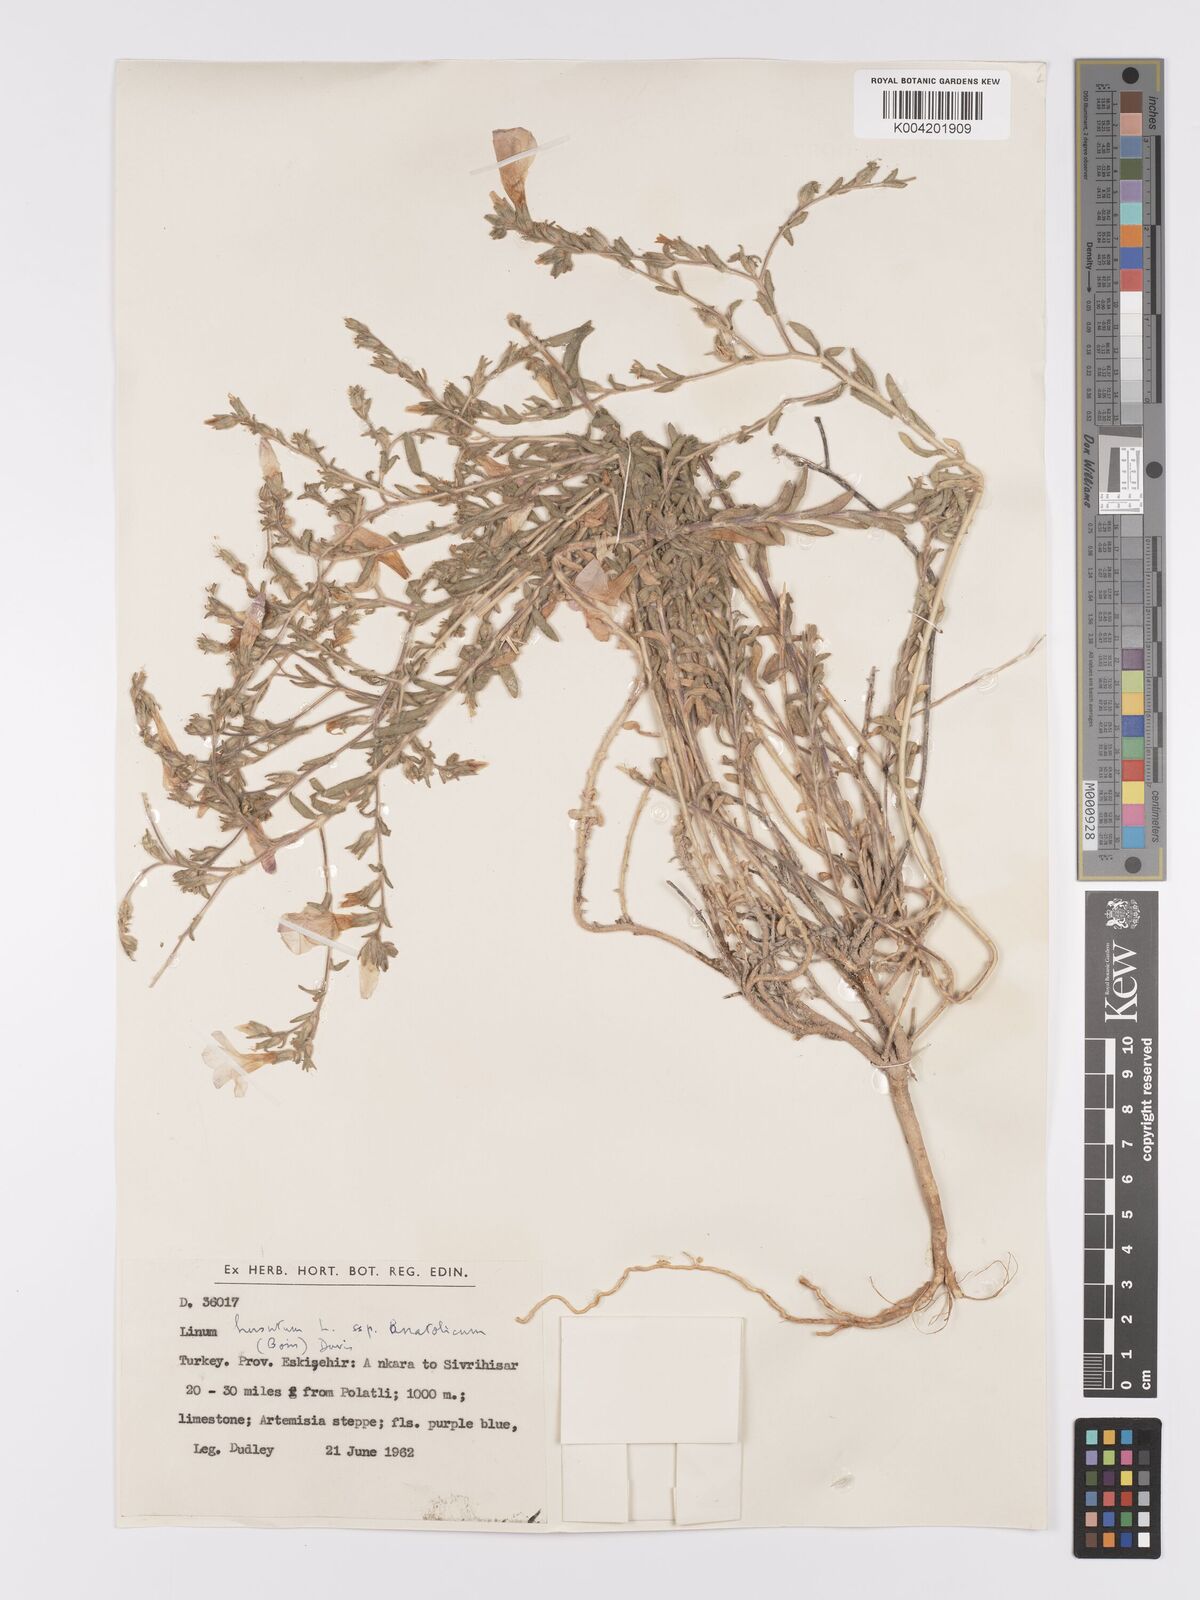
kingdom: Plantae
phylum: Tracheophyta
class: Magnoliopsida
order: Malpighiales
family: Linaceae
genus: Linum
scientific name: Linum
